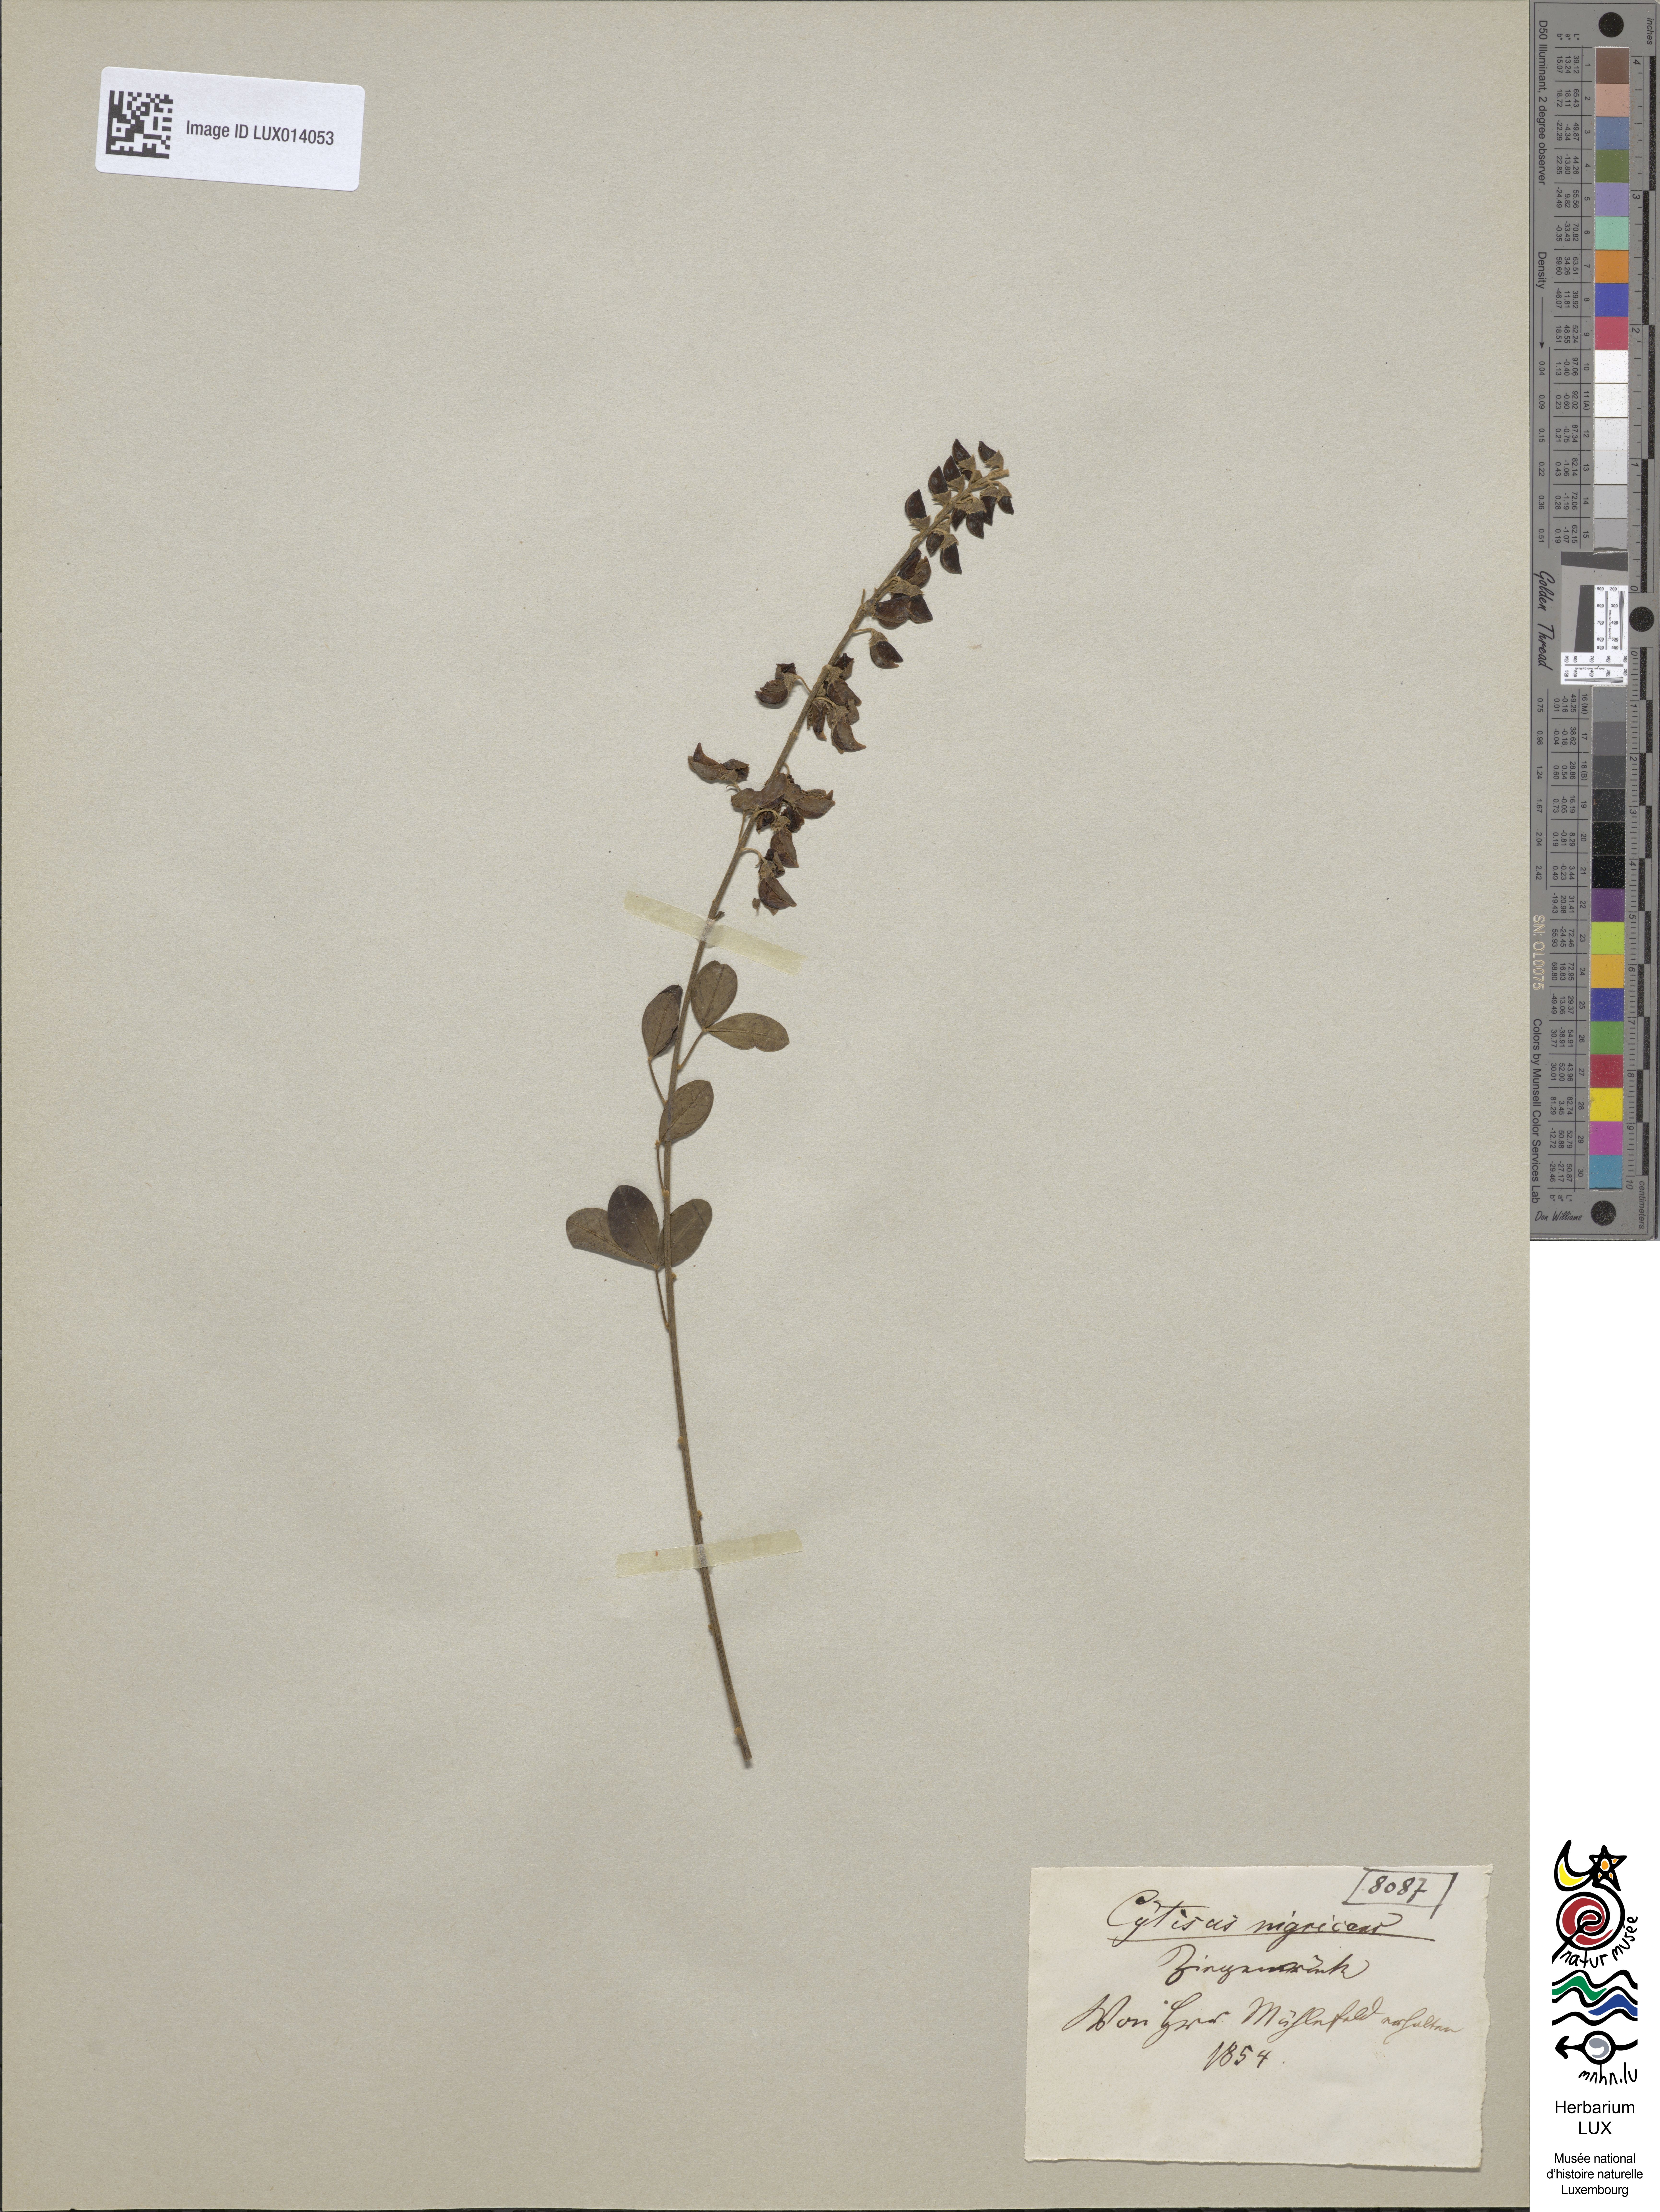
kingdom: Plantae
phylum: Tracheophyta
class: Magnoliopsida
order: Fabales
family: Fabaceae
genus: Cytisus
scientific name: Cytisus nigricans
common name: Black broom
